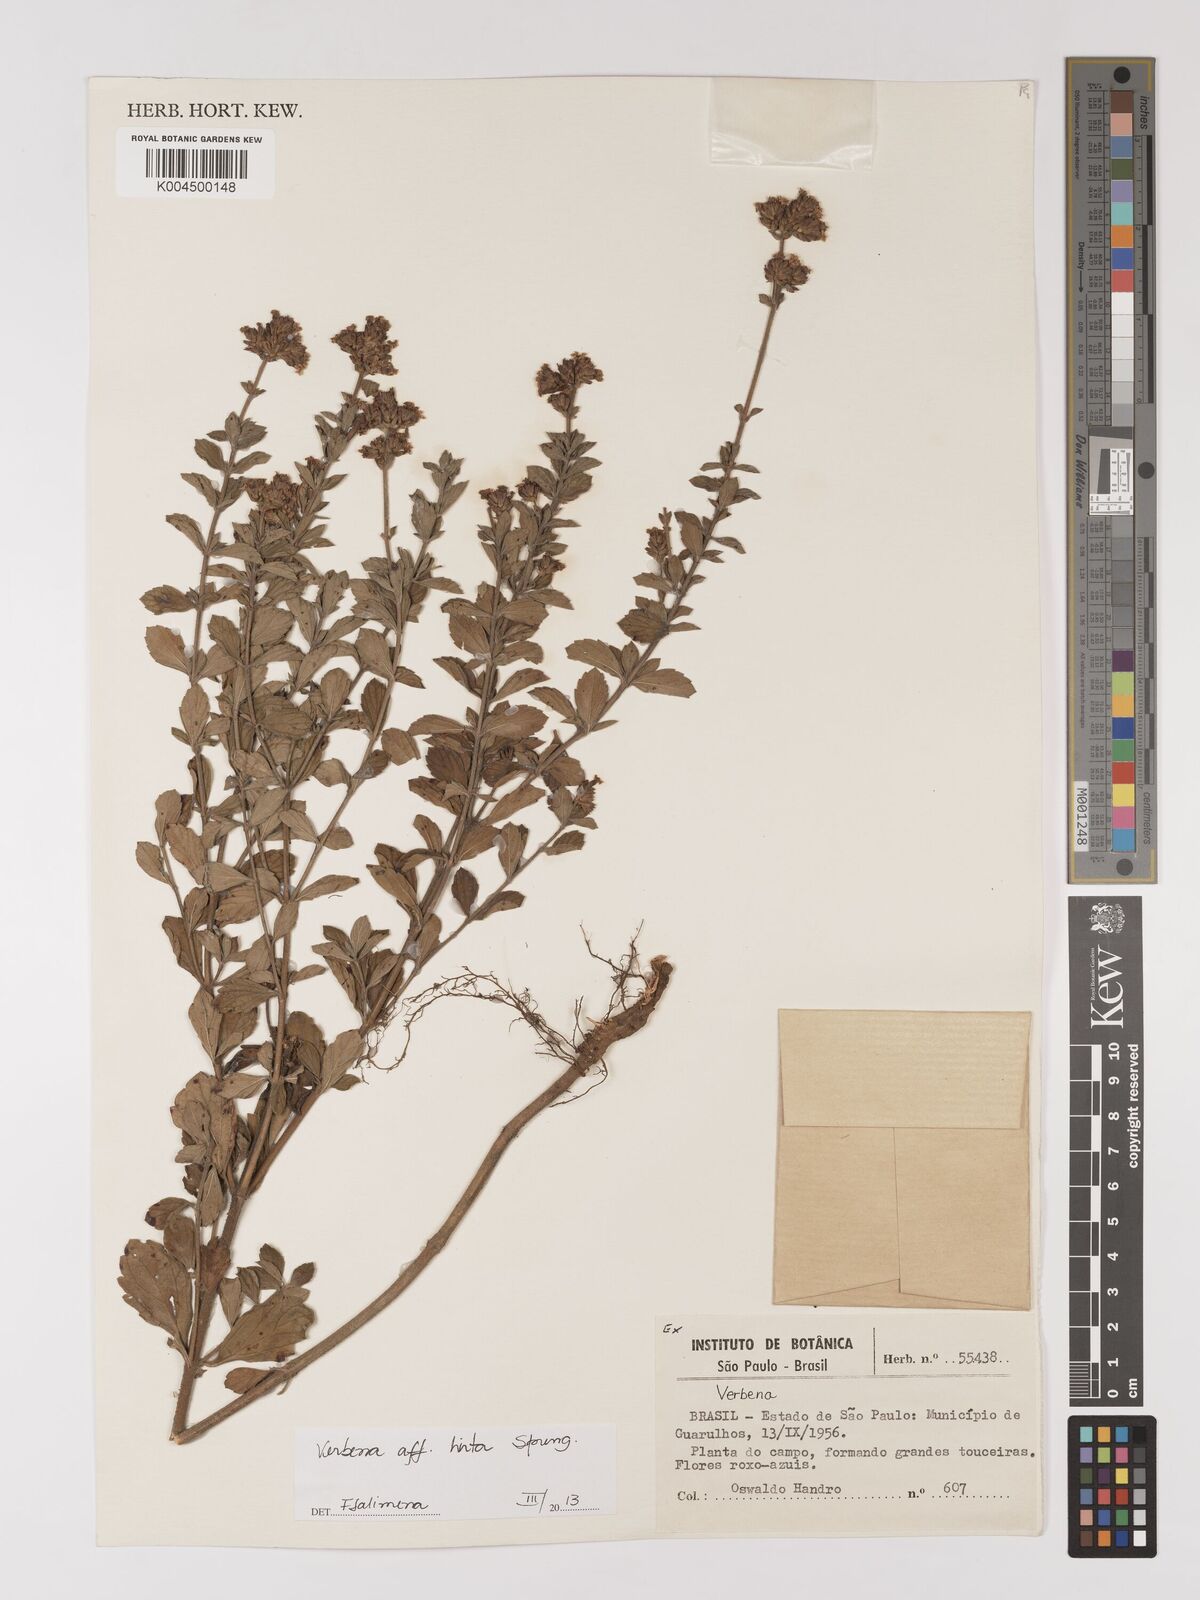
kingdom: Plantae
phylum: Tracheophyta
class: Magnoliopsida
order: Lamiales
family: Verbenaceae
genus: Verbena
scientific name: Verbena hirta
